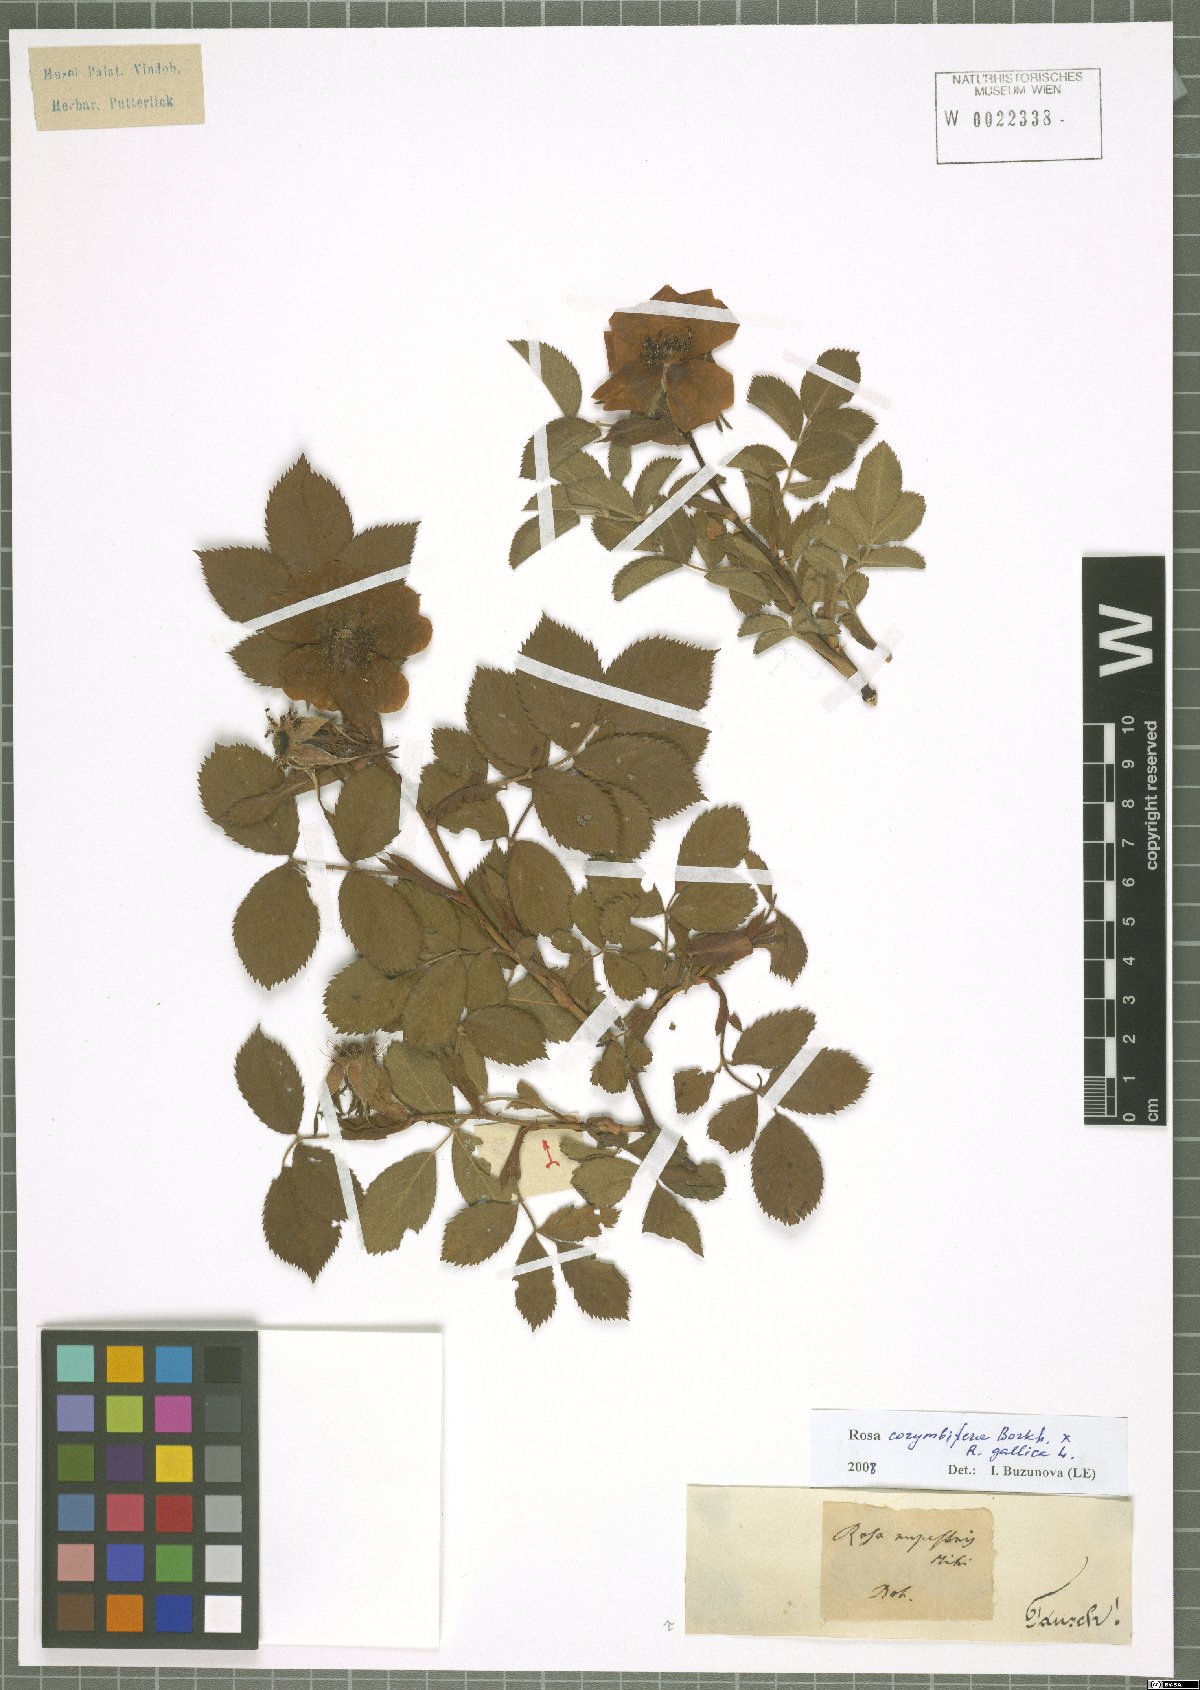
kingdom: Plantae
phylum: Tracheophyta
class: Magnoliopsida
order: Rosales
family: Rosaceae
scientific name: Rosaceae
